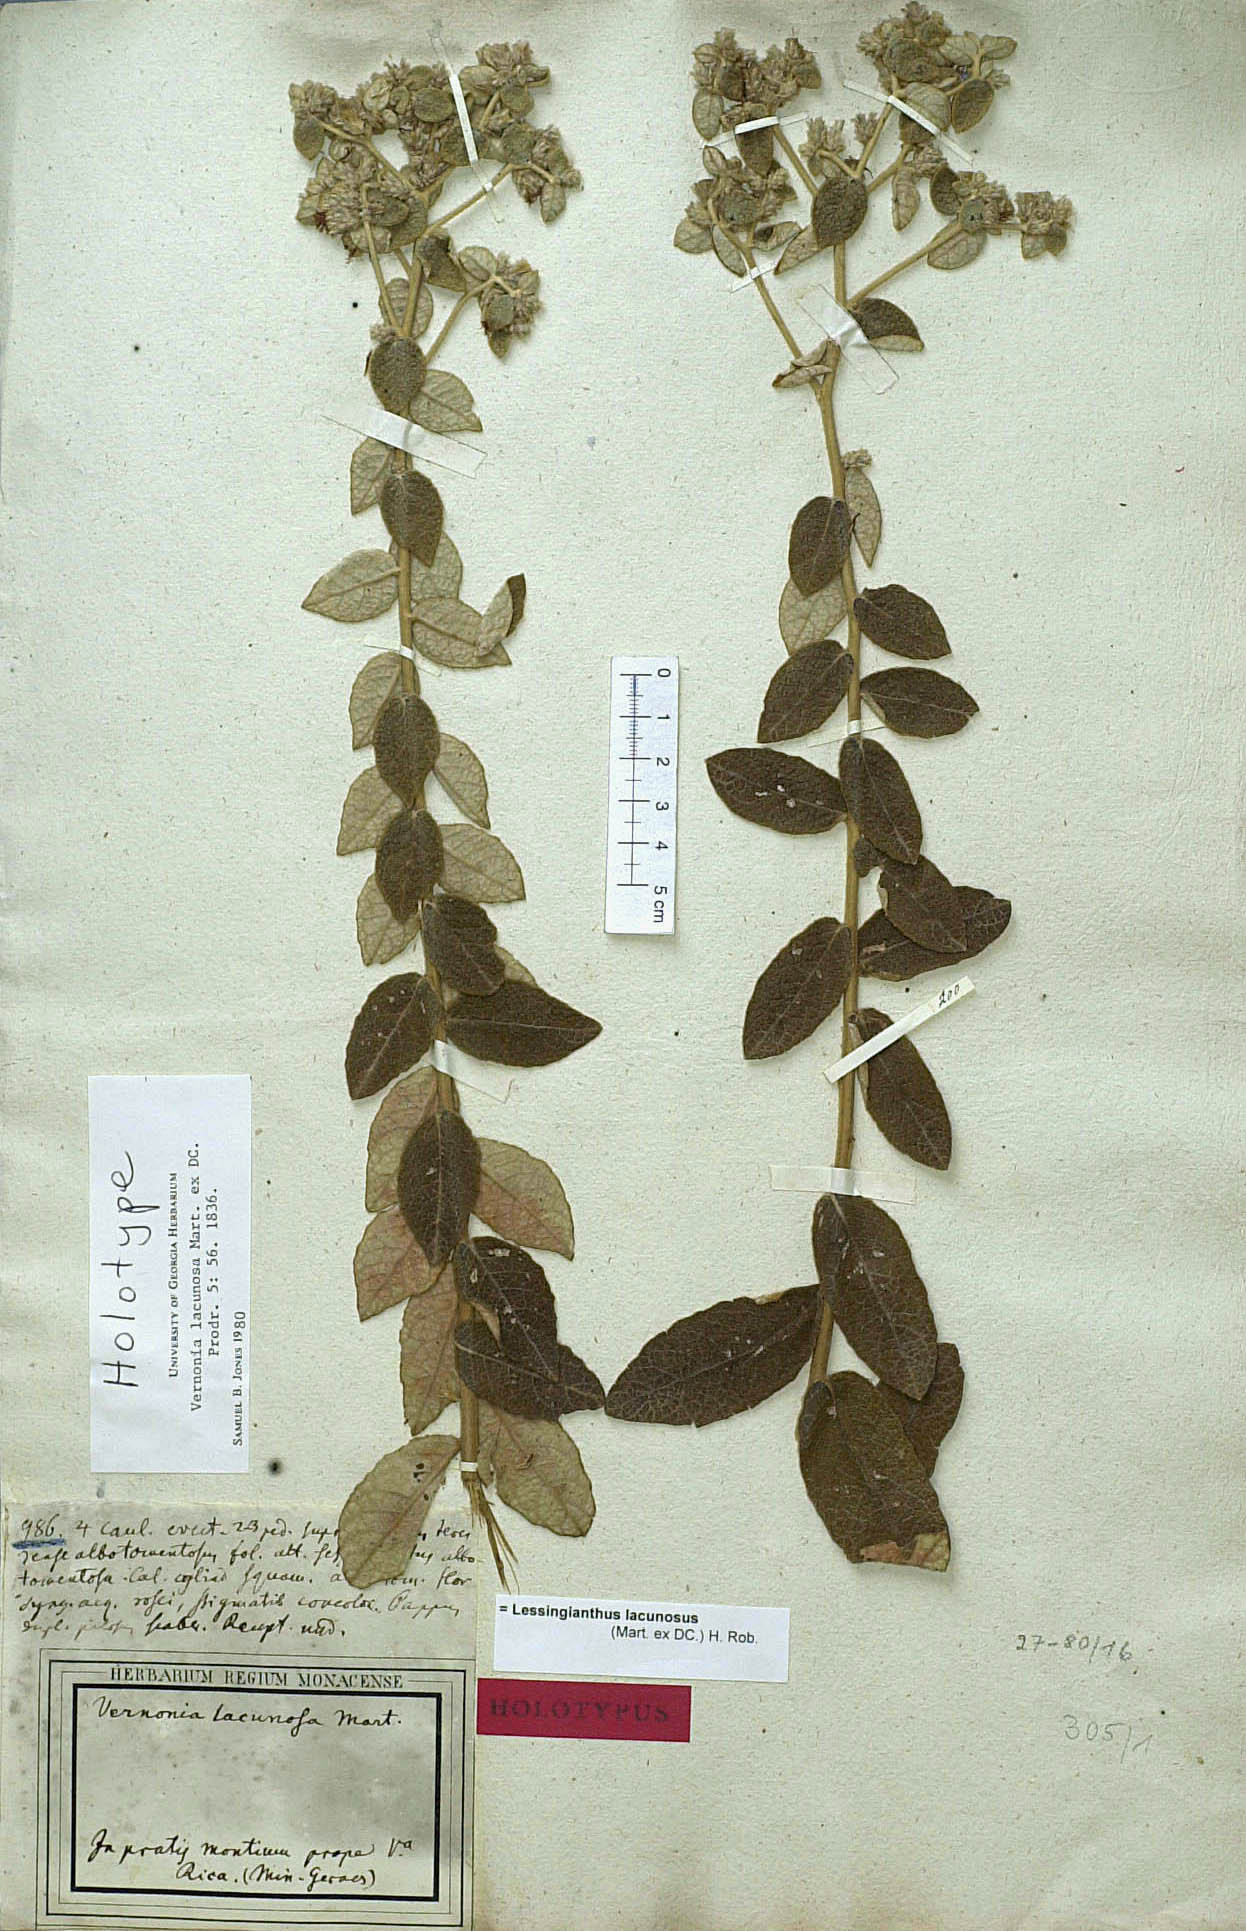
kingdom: Plantae
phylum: Tracheophyta
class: Magnoliopsida
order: Asterales
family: Asteraceae
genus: Lessingianthus
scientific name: Lessingianthus lacunosus
